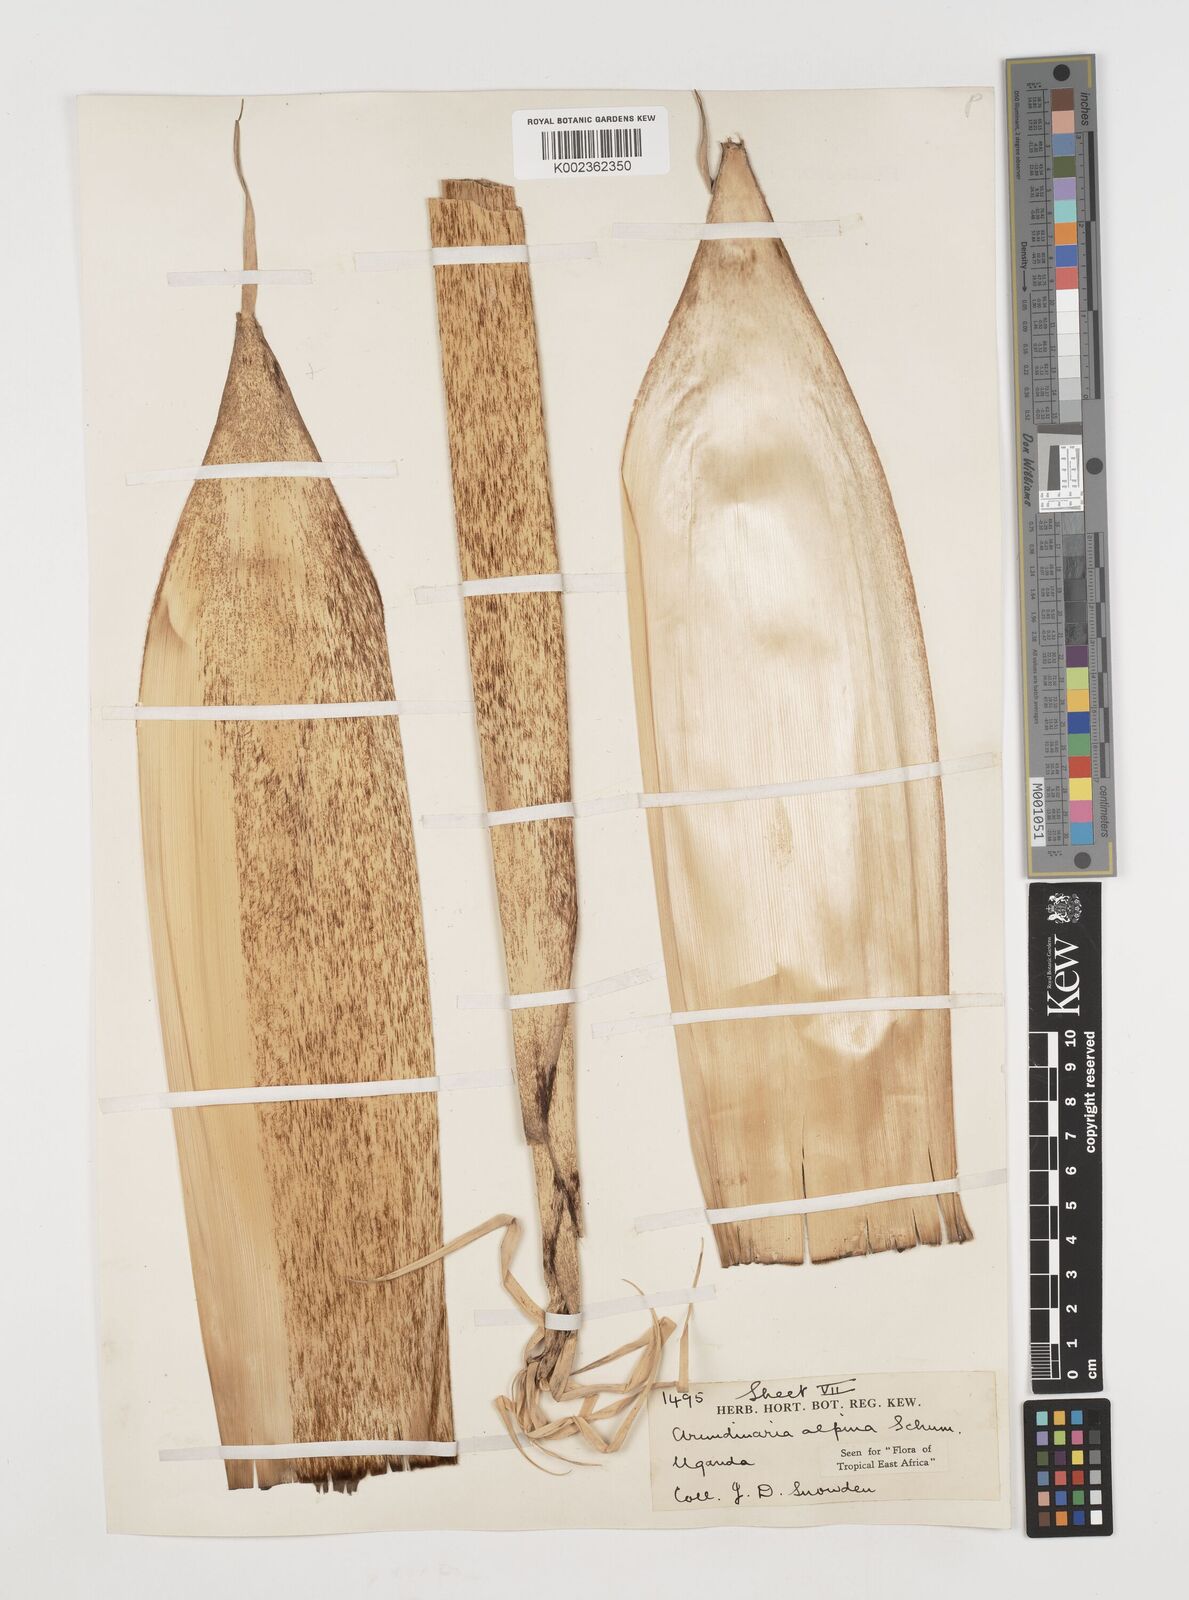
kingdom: Plantae
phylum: Tracheophyta
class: Liliopsida
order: Poales
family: Poaceae
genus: Oldeania
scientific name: Oldeania alpina
